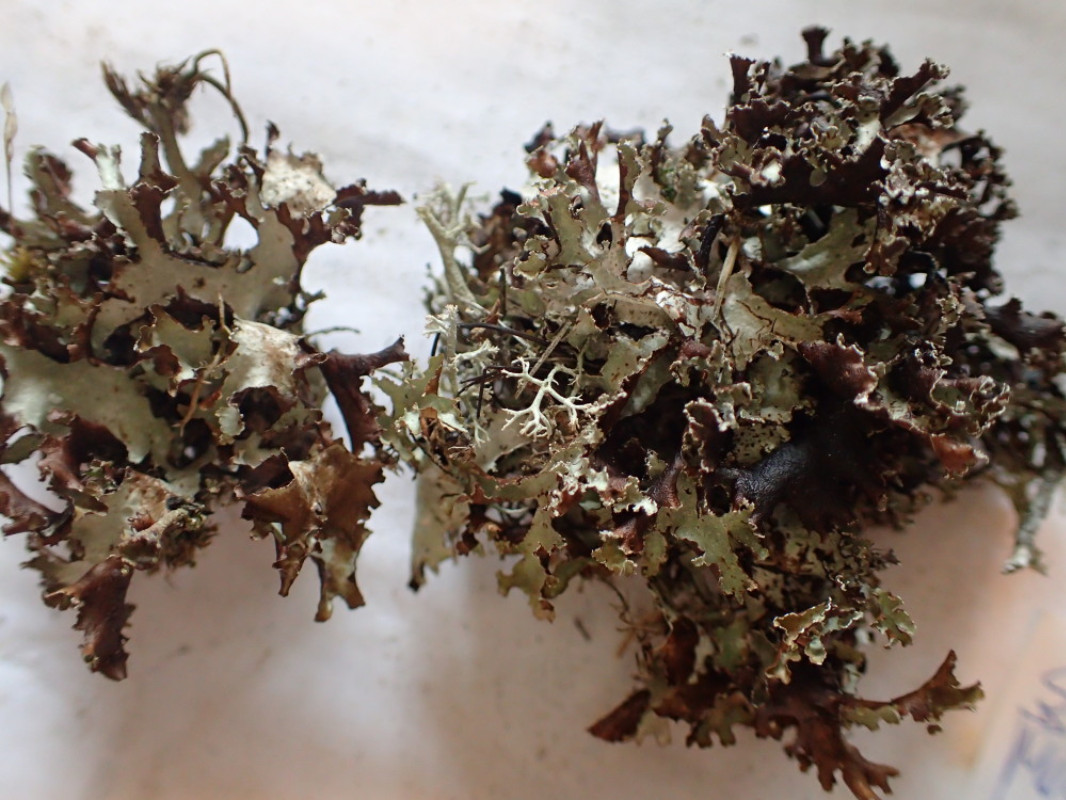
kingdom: Fungi
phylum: Ascomycota
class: Lecanoromycetes
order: Lecanorales
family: Parmeliaceae
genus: Platismatia
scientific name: Platismatia glauca
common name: blågrå papirlav
